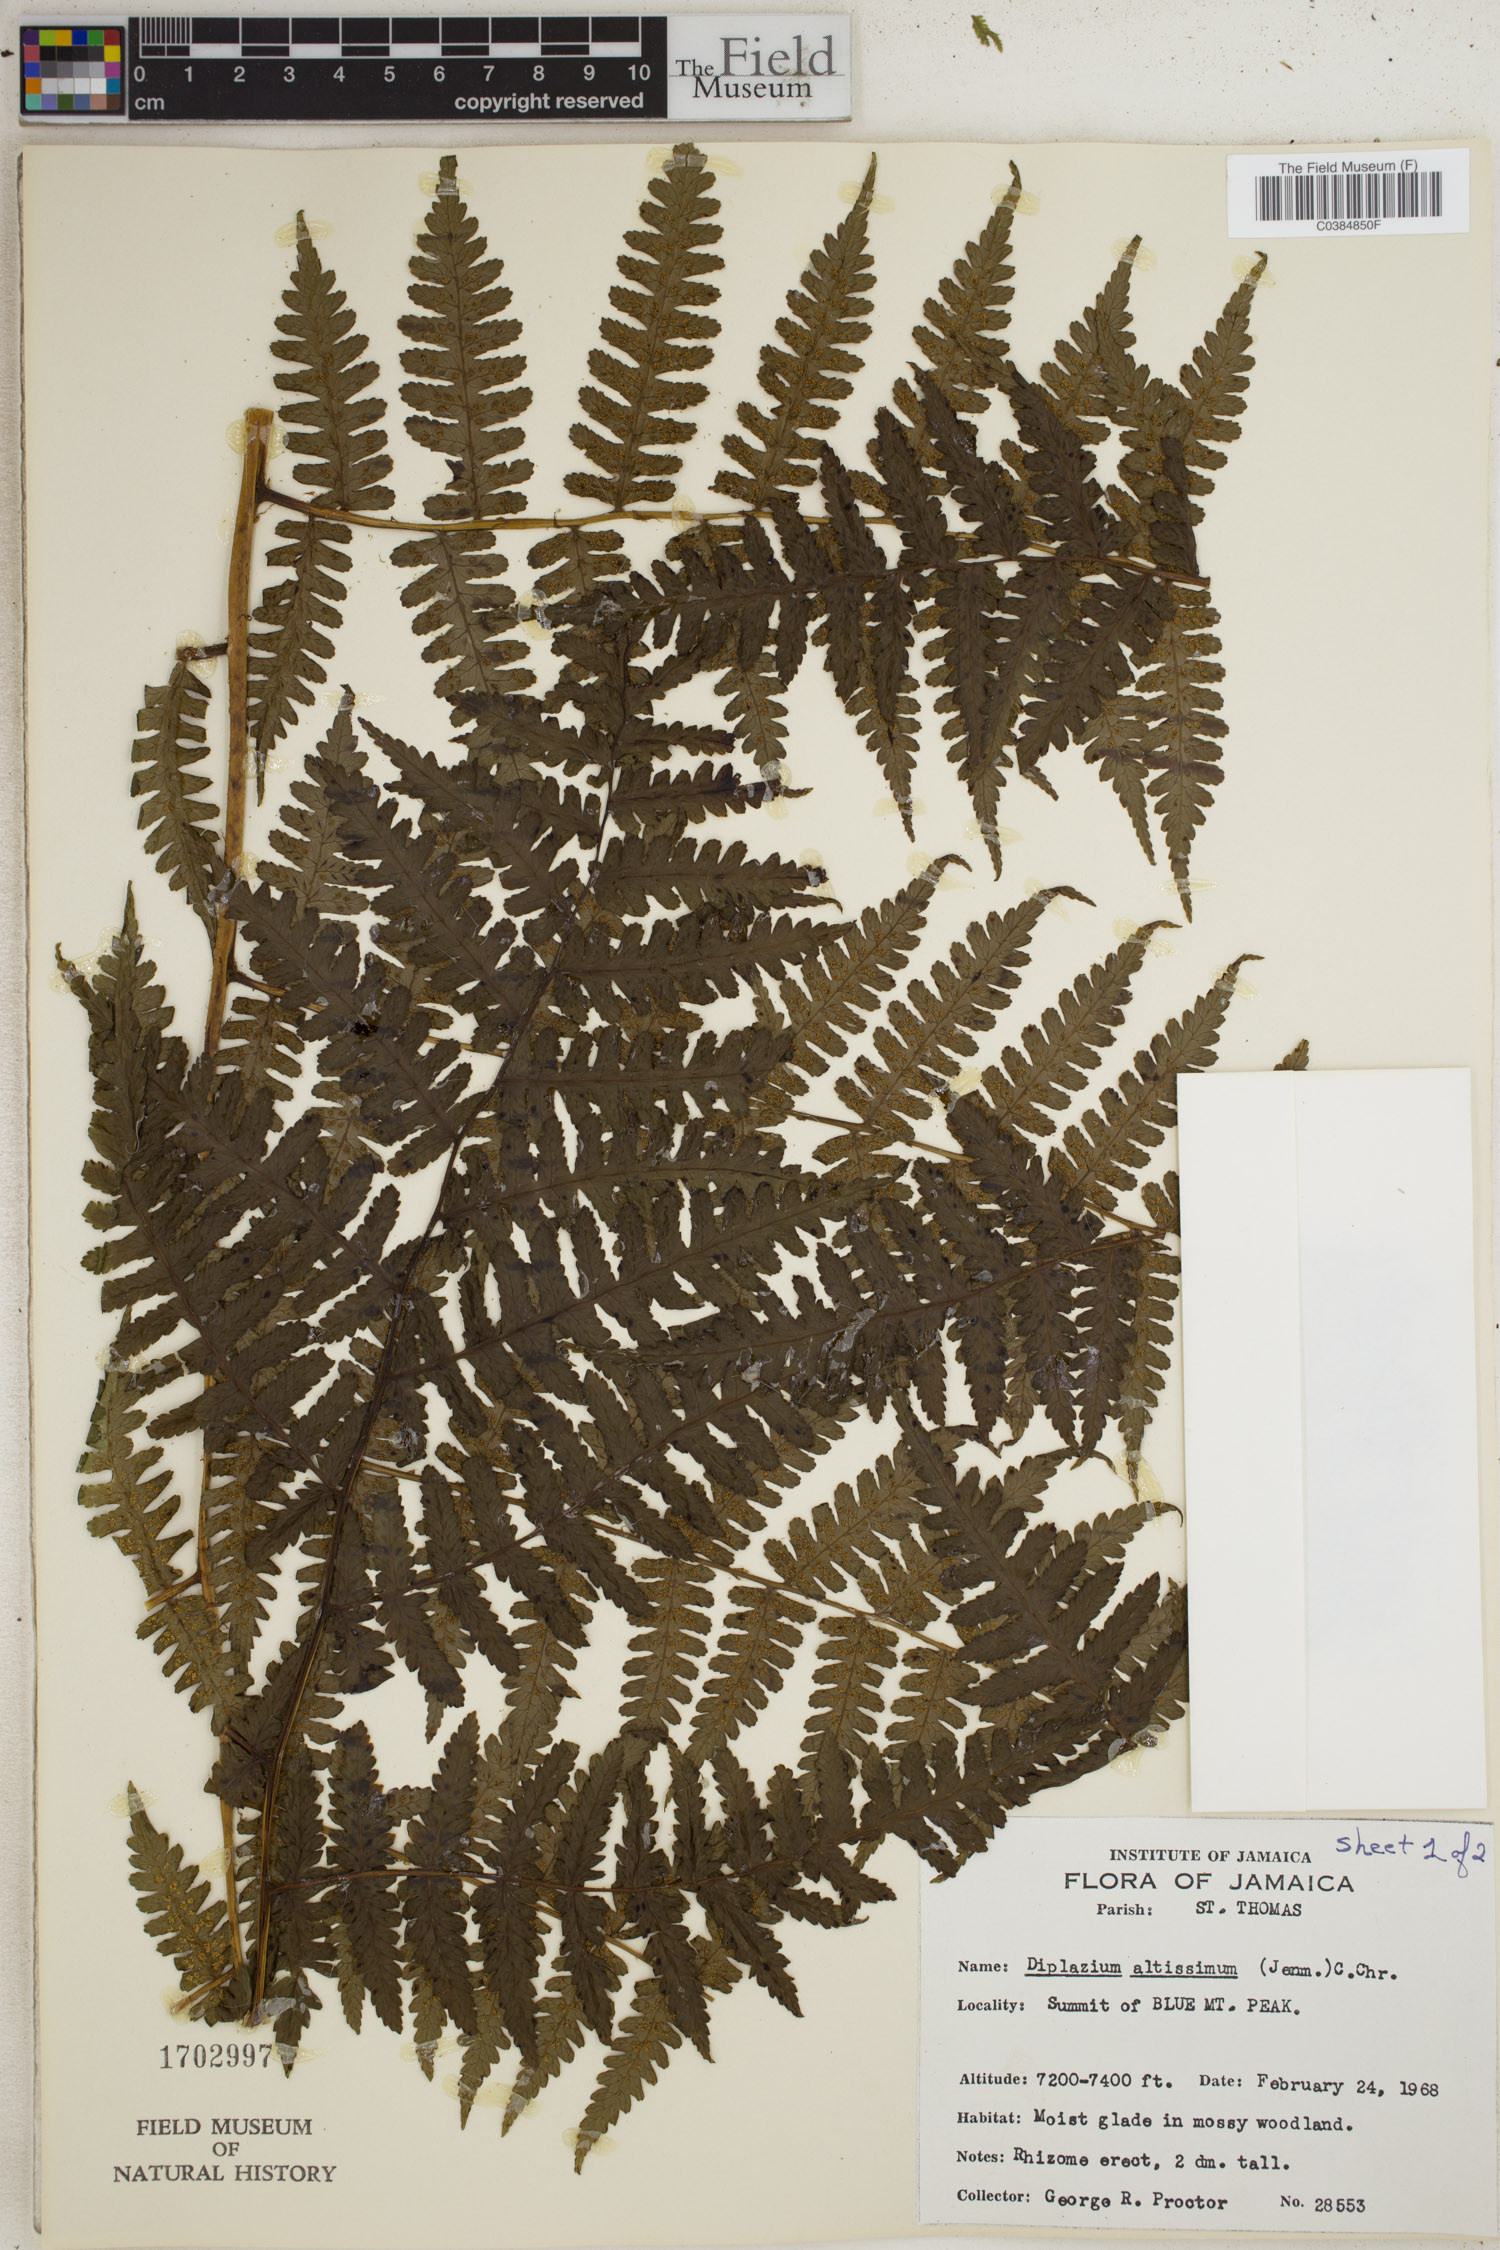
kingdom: Plantae
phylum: Tracheophyta
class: Polypodiopsida
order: Polypodiales
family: Athyriaceae
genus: Diplazium
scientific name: Diplazium altissimum
